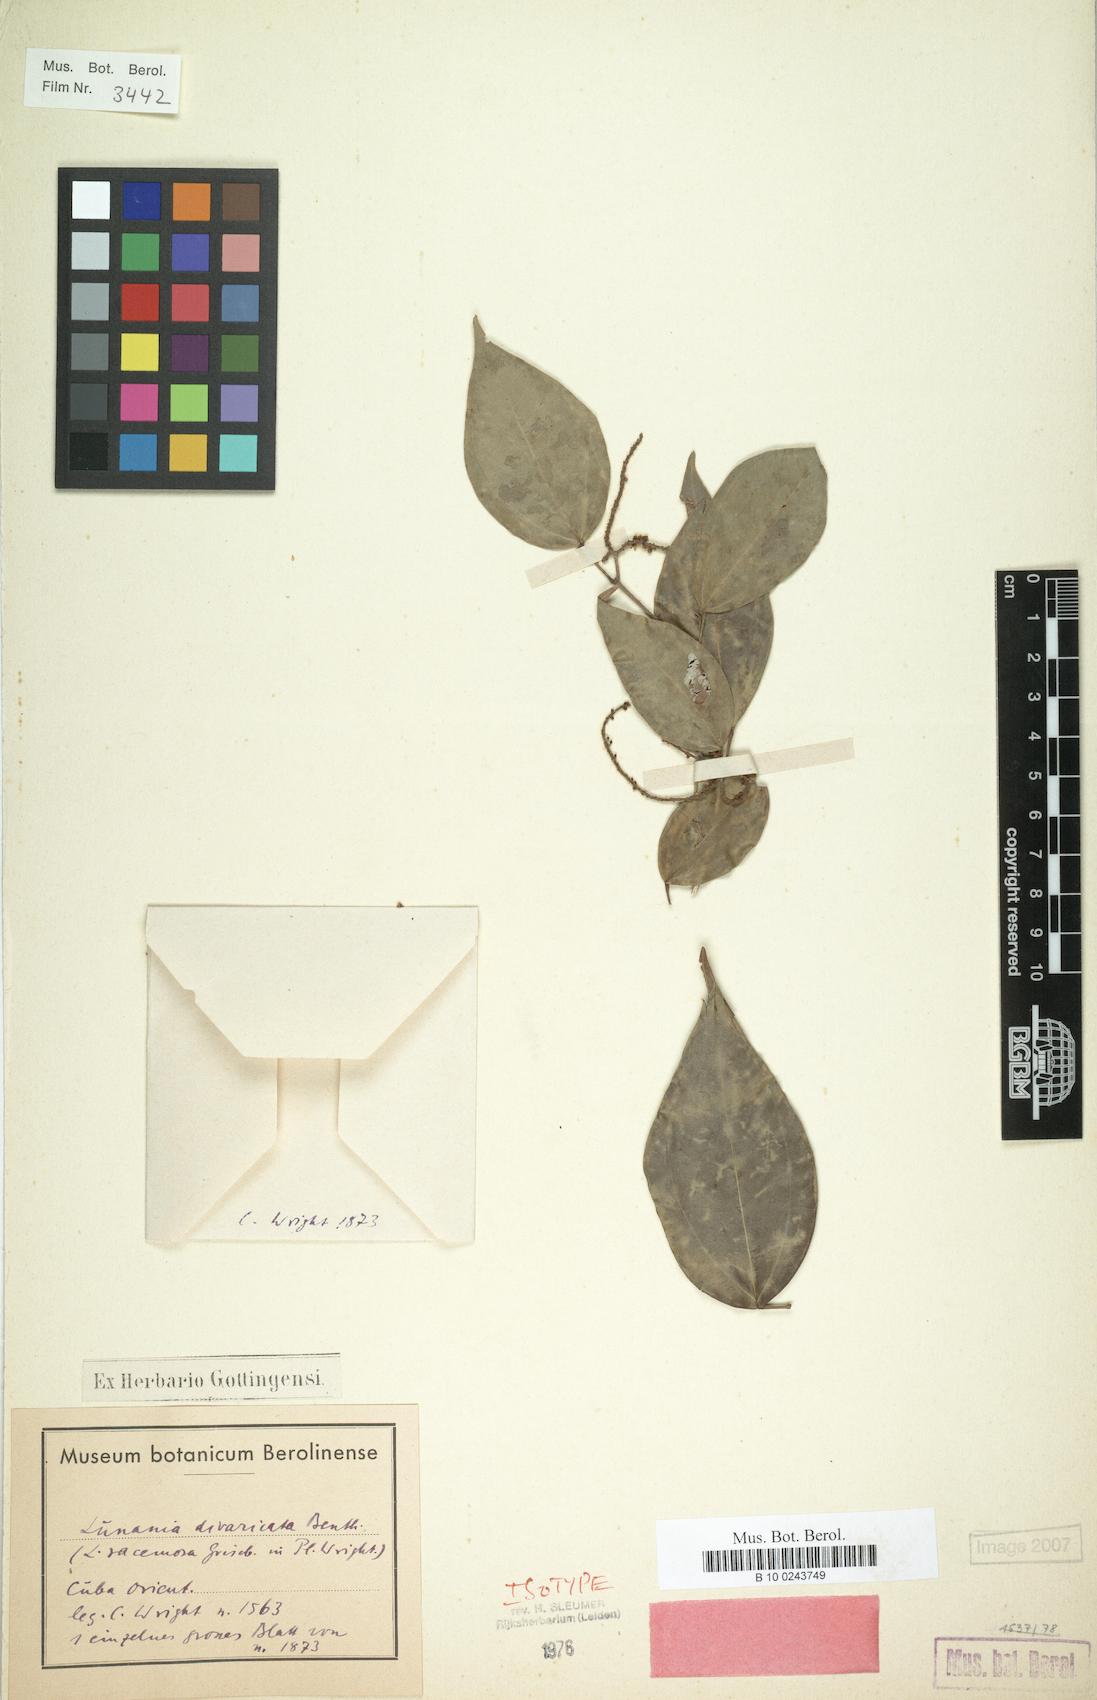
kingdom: Plantae
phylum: Tracheophyta
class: Magnoliopsida
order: Malpighiales
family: Salicaceae
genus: Lunania
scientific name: Lunania divaricata
